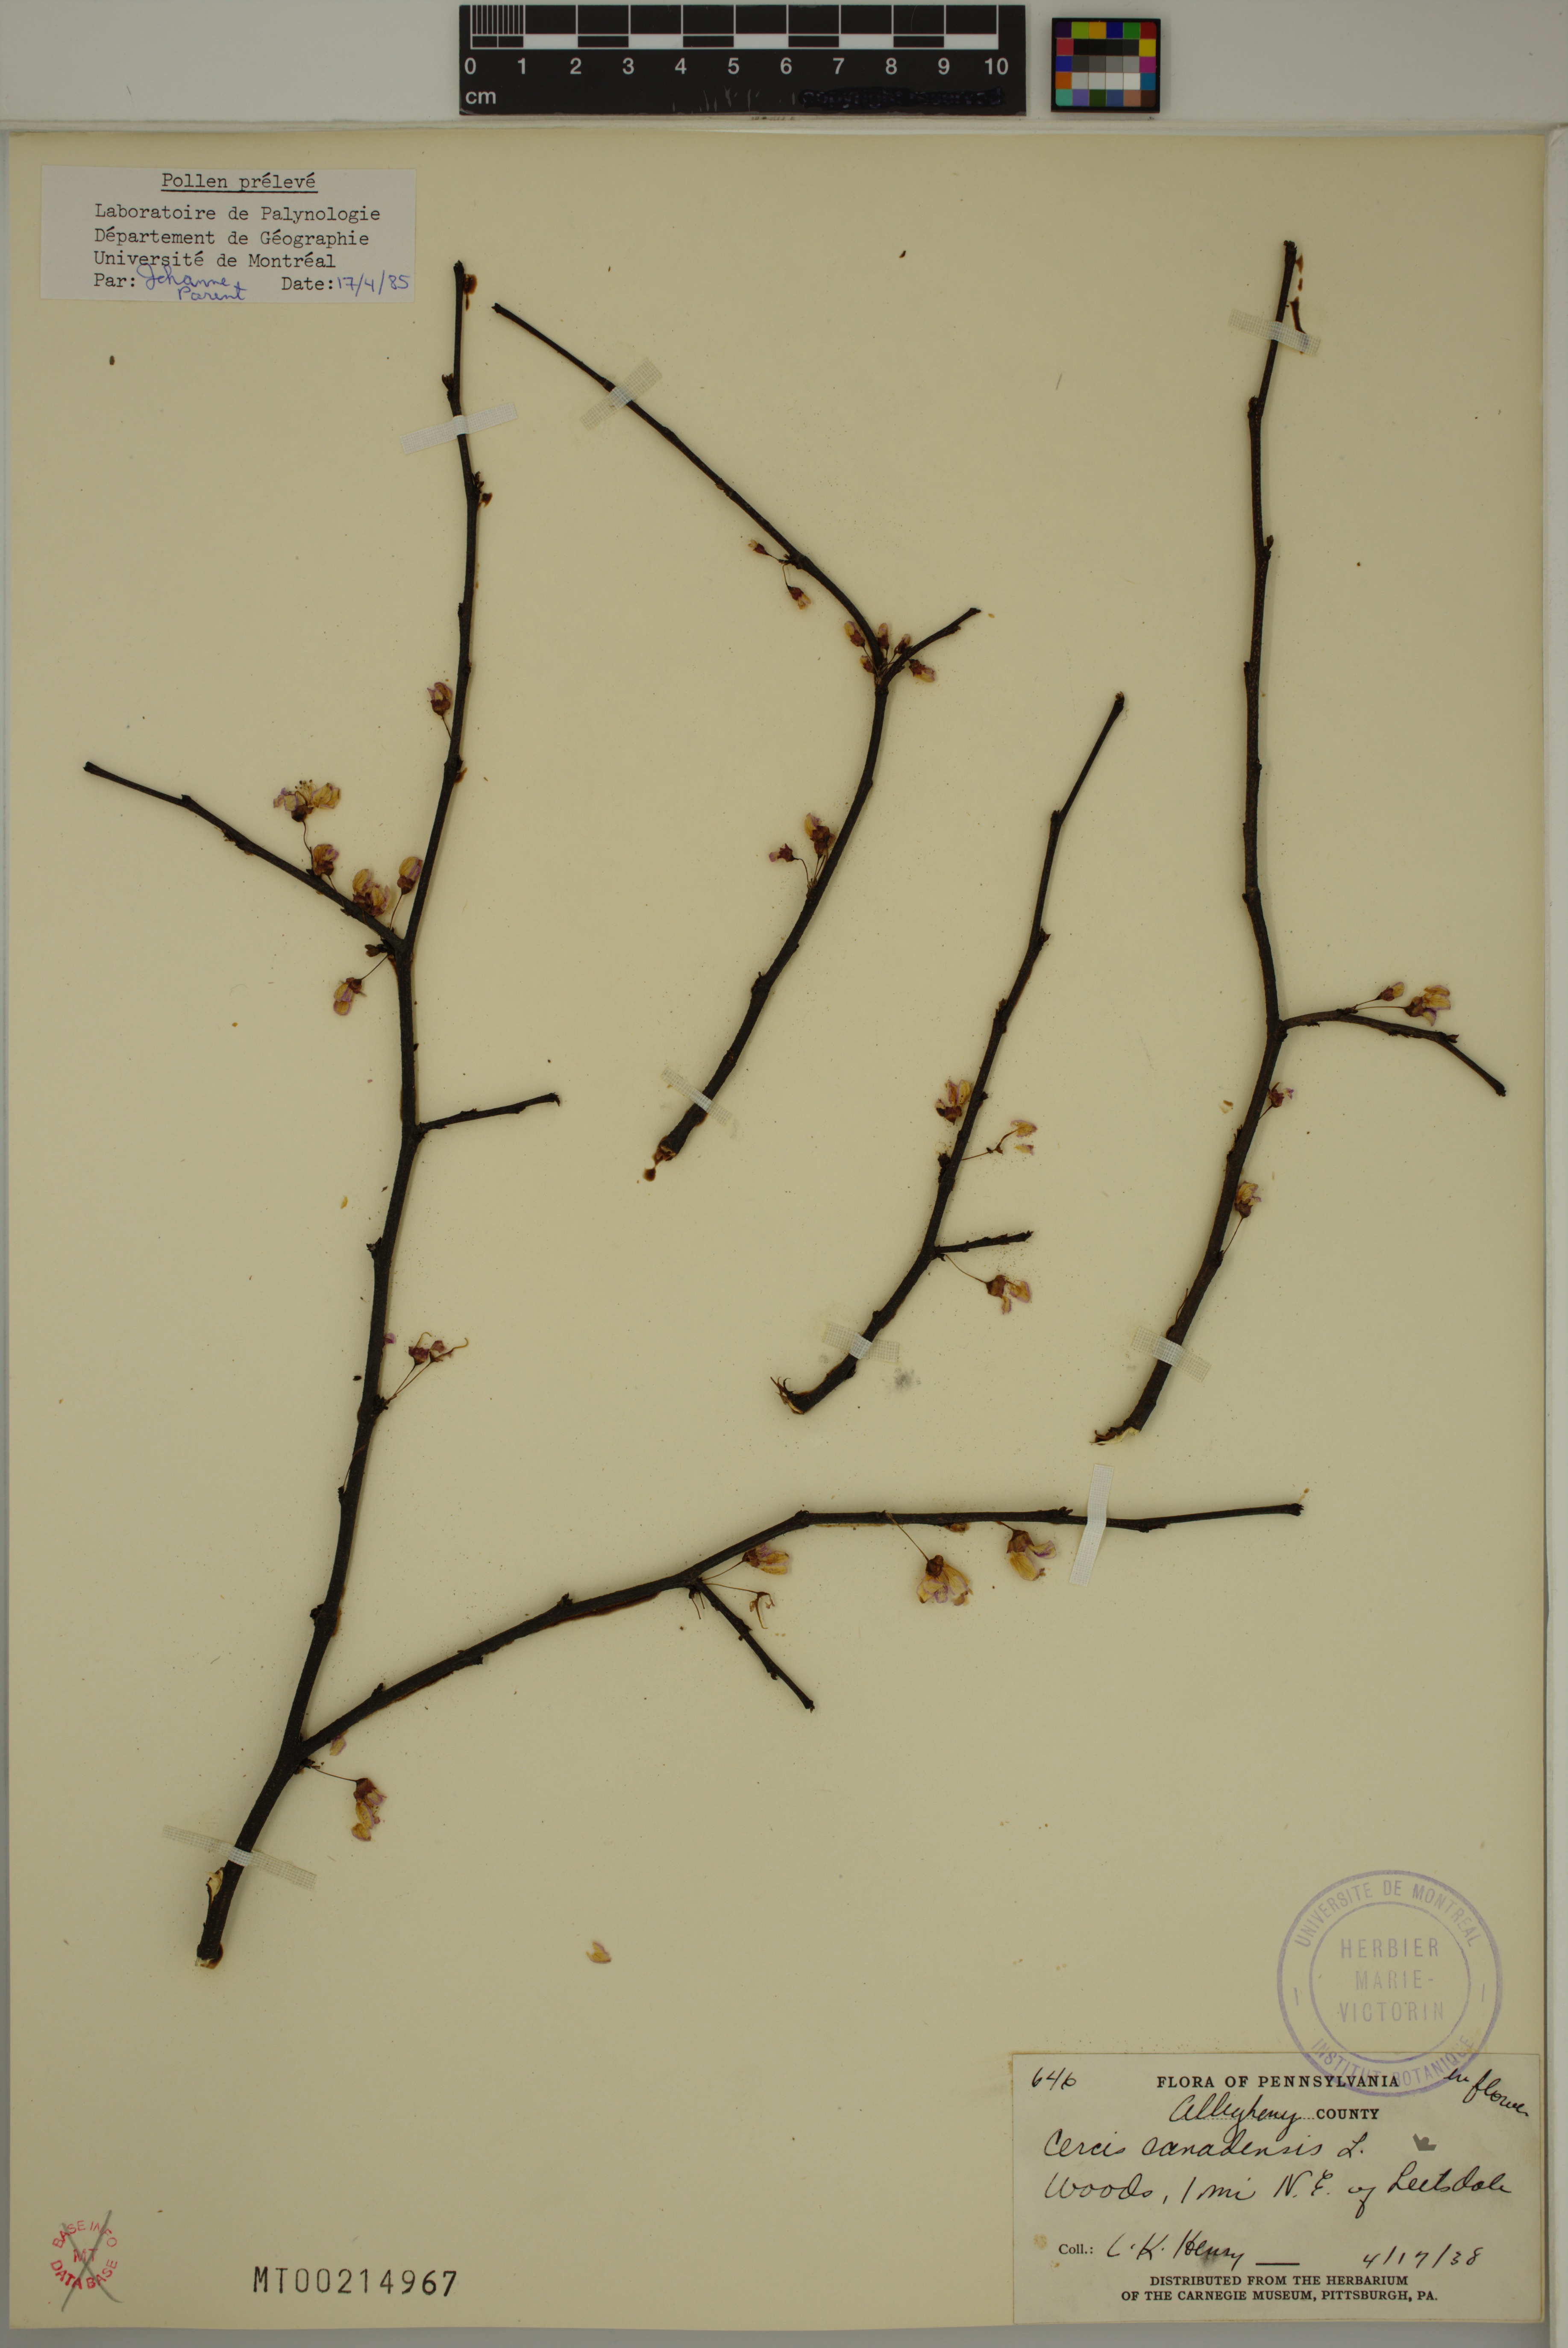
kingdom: Plantae
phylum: Tracheophyta
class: Magnoliopsida
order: Fabales
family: Fabaceae
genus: Cercis
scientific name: Cercis canadensis
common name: Eastern redbud
